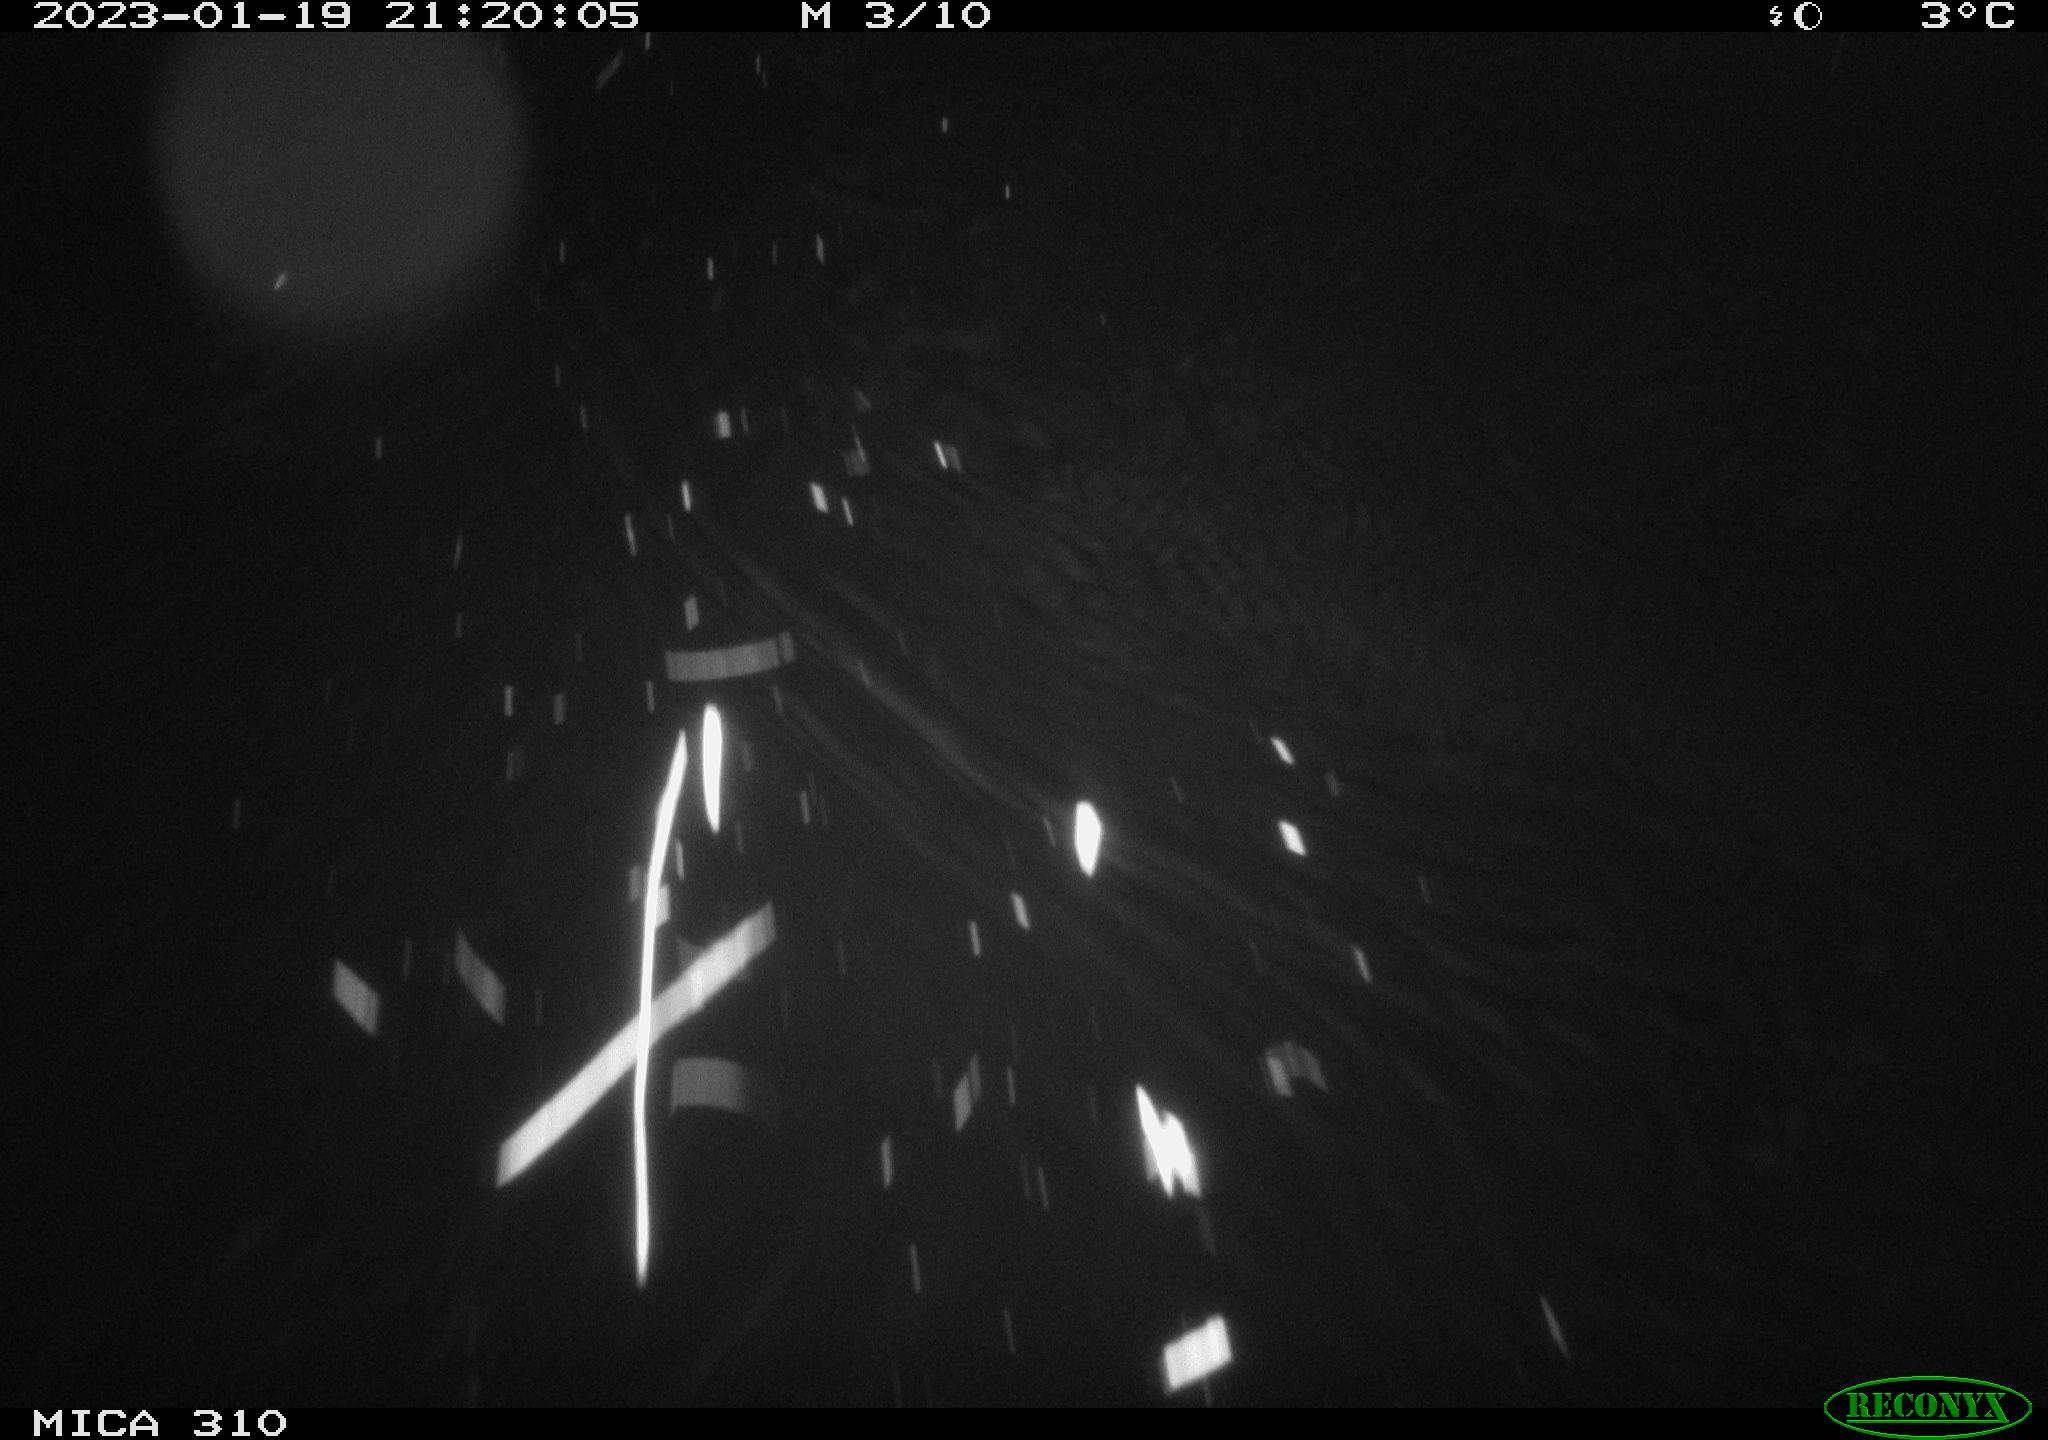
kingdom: Animalia
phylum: Chordata
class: Mammalia
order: Rodentia
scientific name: Rodentia
